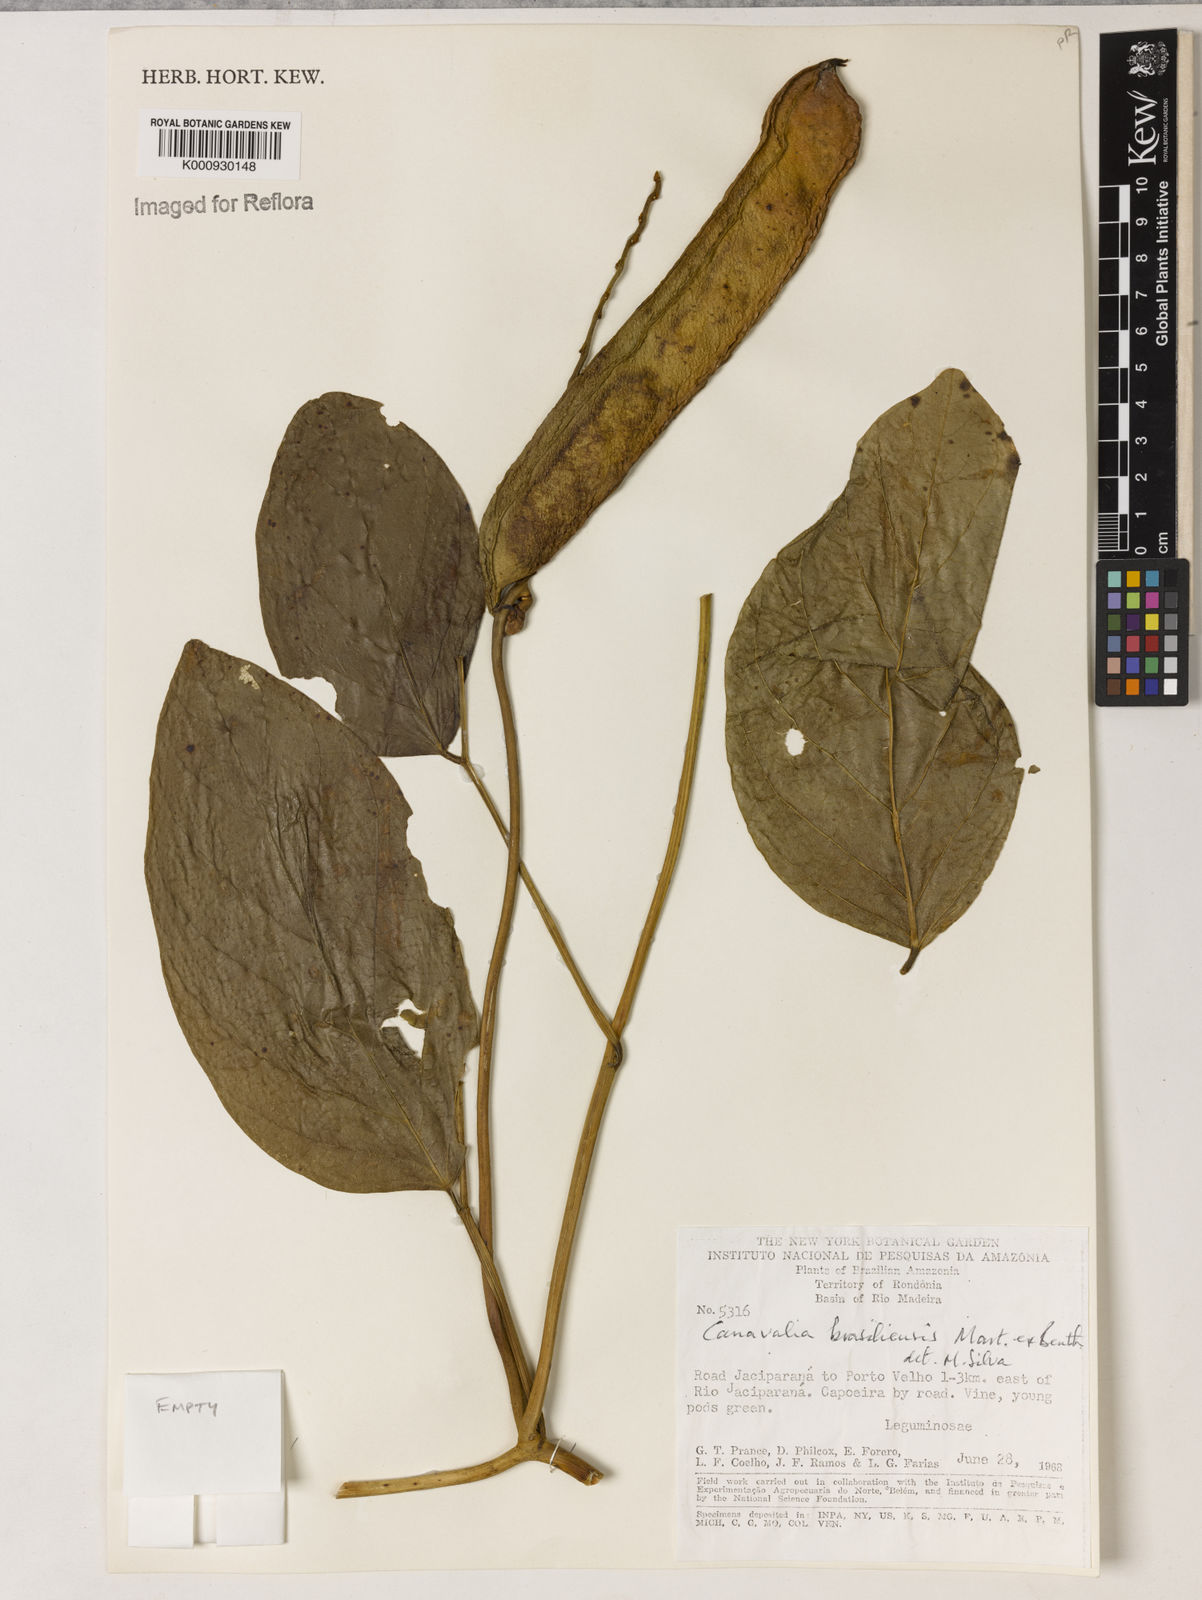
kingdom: Plantae
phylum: Tracheophyta
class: Magnoliopsida
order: Fabales
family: Fabaceae
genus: Canavalia
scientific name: Canavalia brasiliensis
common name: Barbicou-bean
